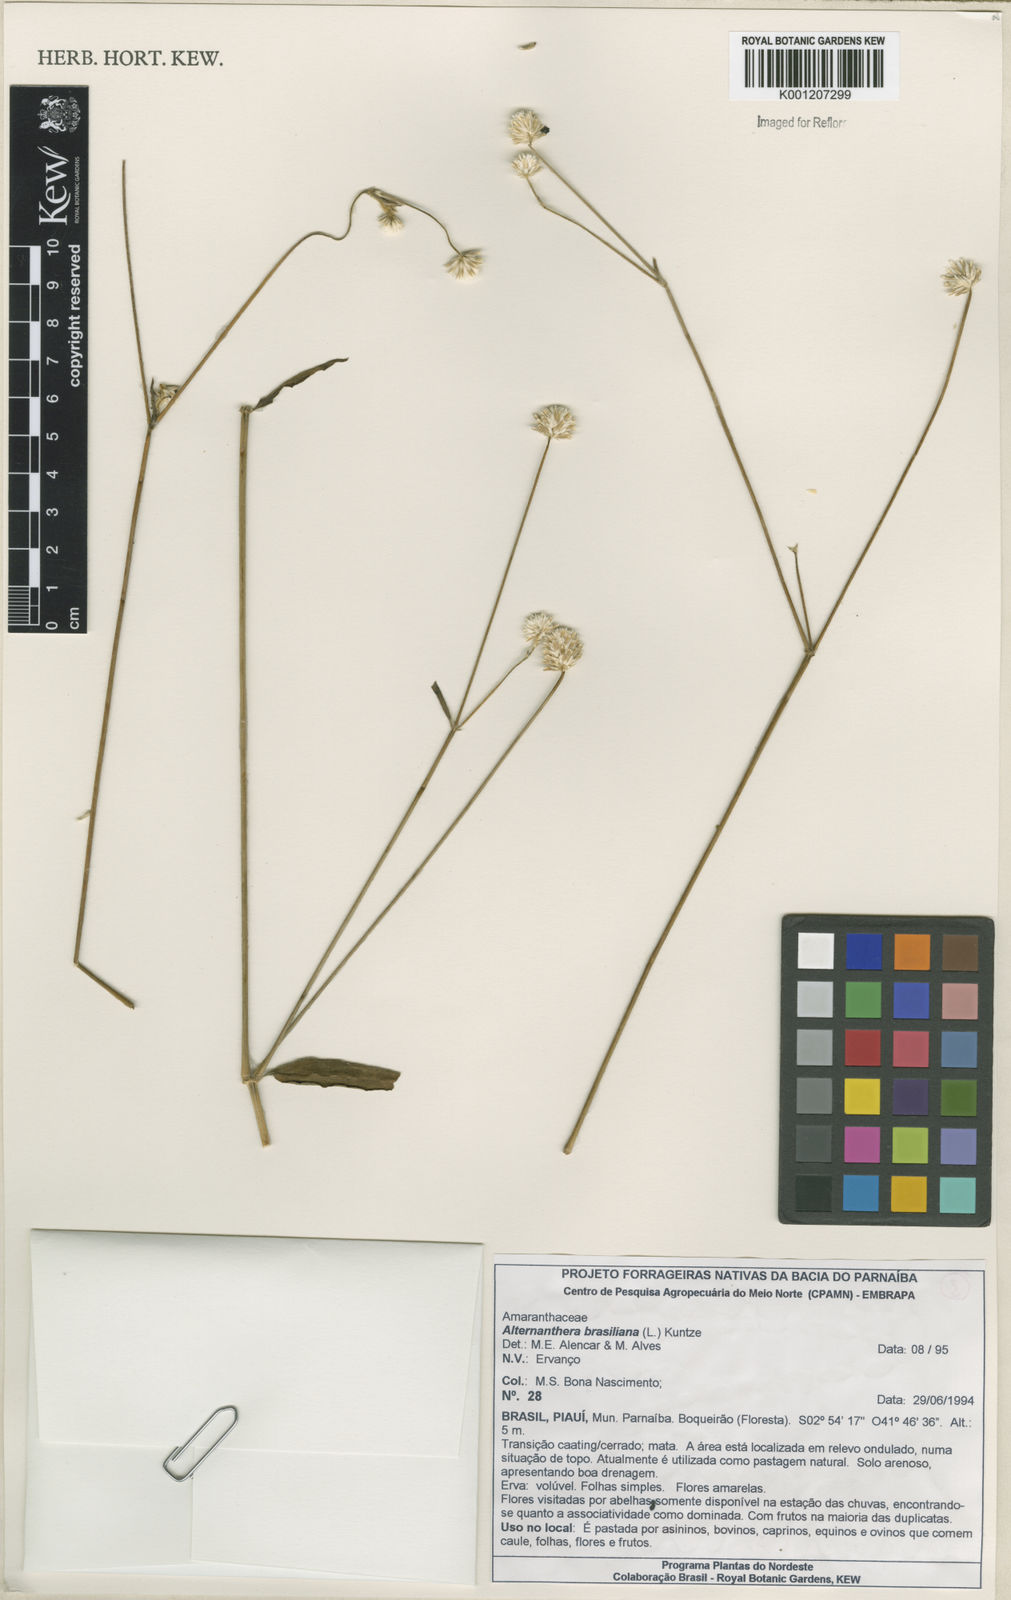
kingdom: Plantae
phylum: Tracheophyta
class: Magnoliopsida
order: Caryophyllales
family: Amaranthaceae
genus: Alternanthera
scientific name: Alternanthera brasiliana
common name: Brazilian joyweed
